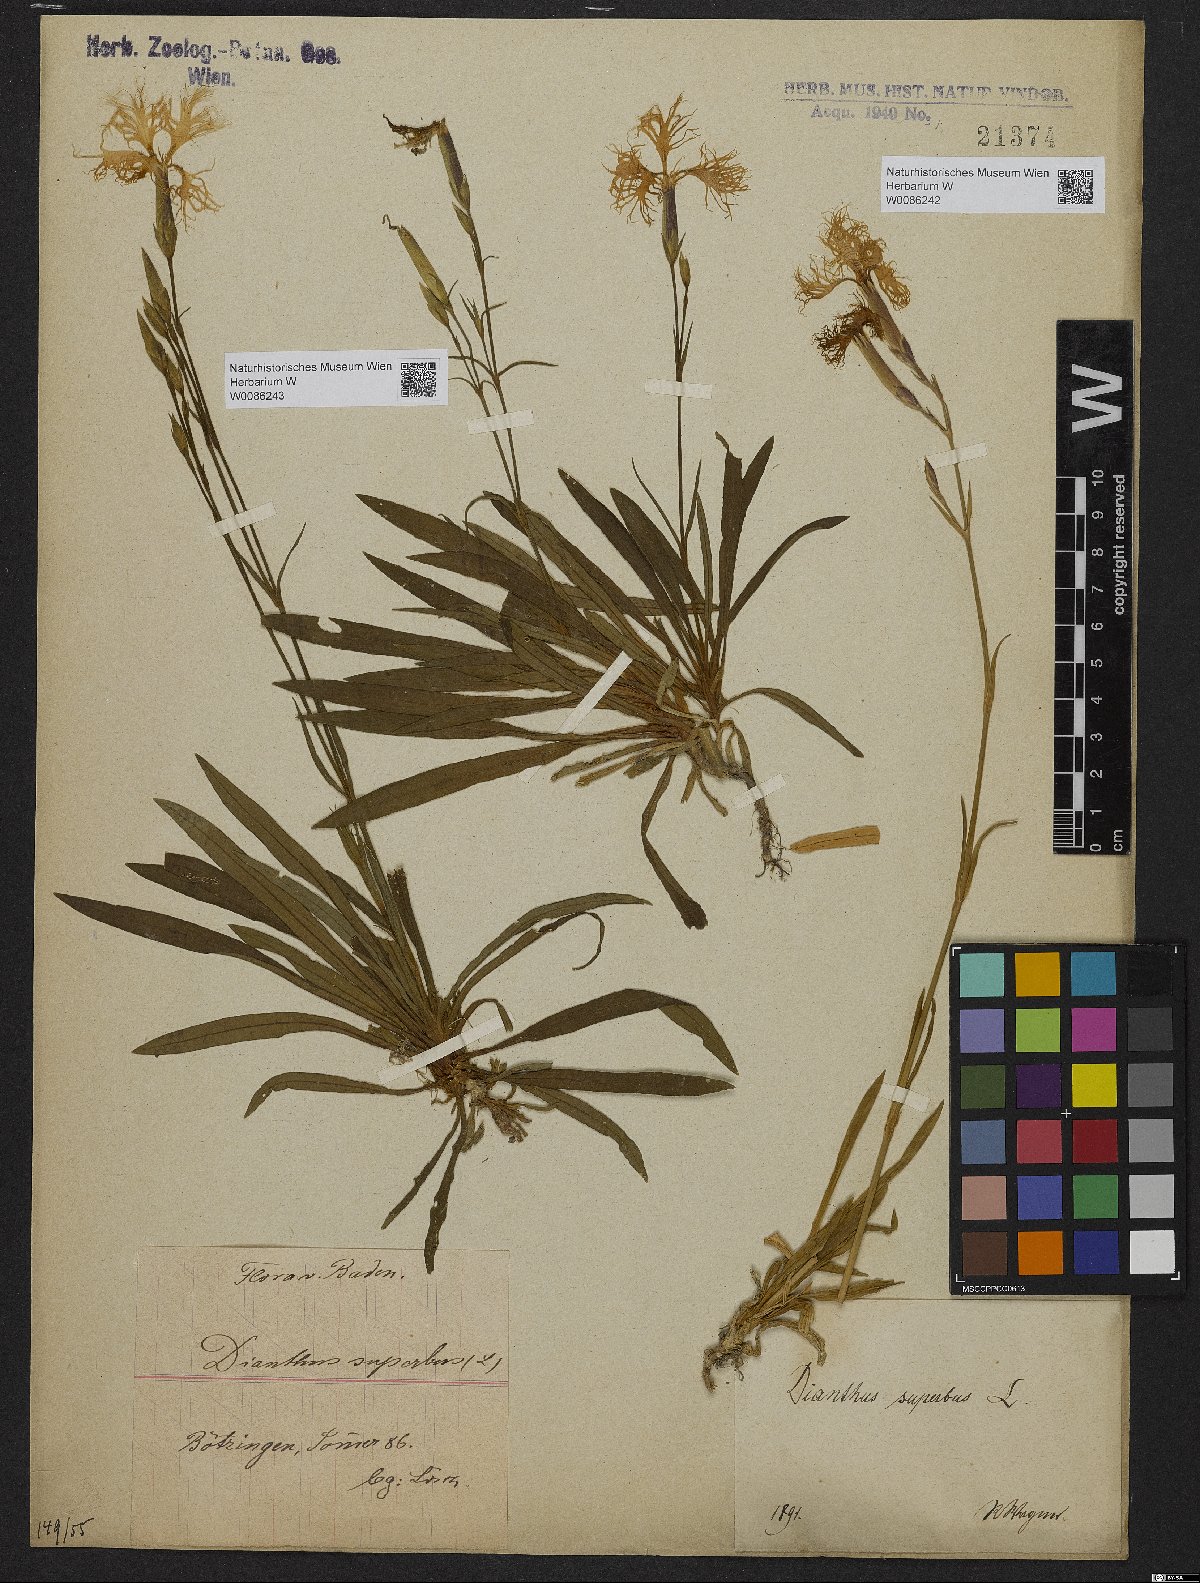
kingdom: Plantae
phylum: Tracheophyta
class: Magnoliopsida
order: Caryophyllales
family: Caryophyllaceae
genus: Dianthus
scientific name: Dianthus superbus
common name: Fringed pink
